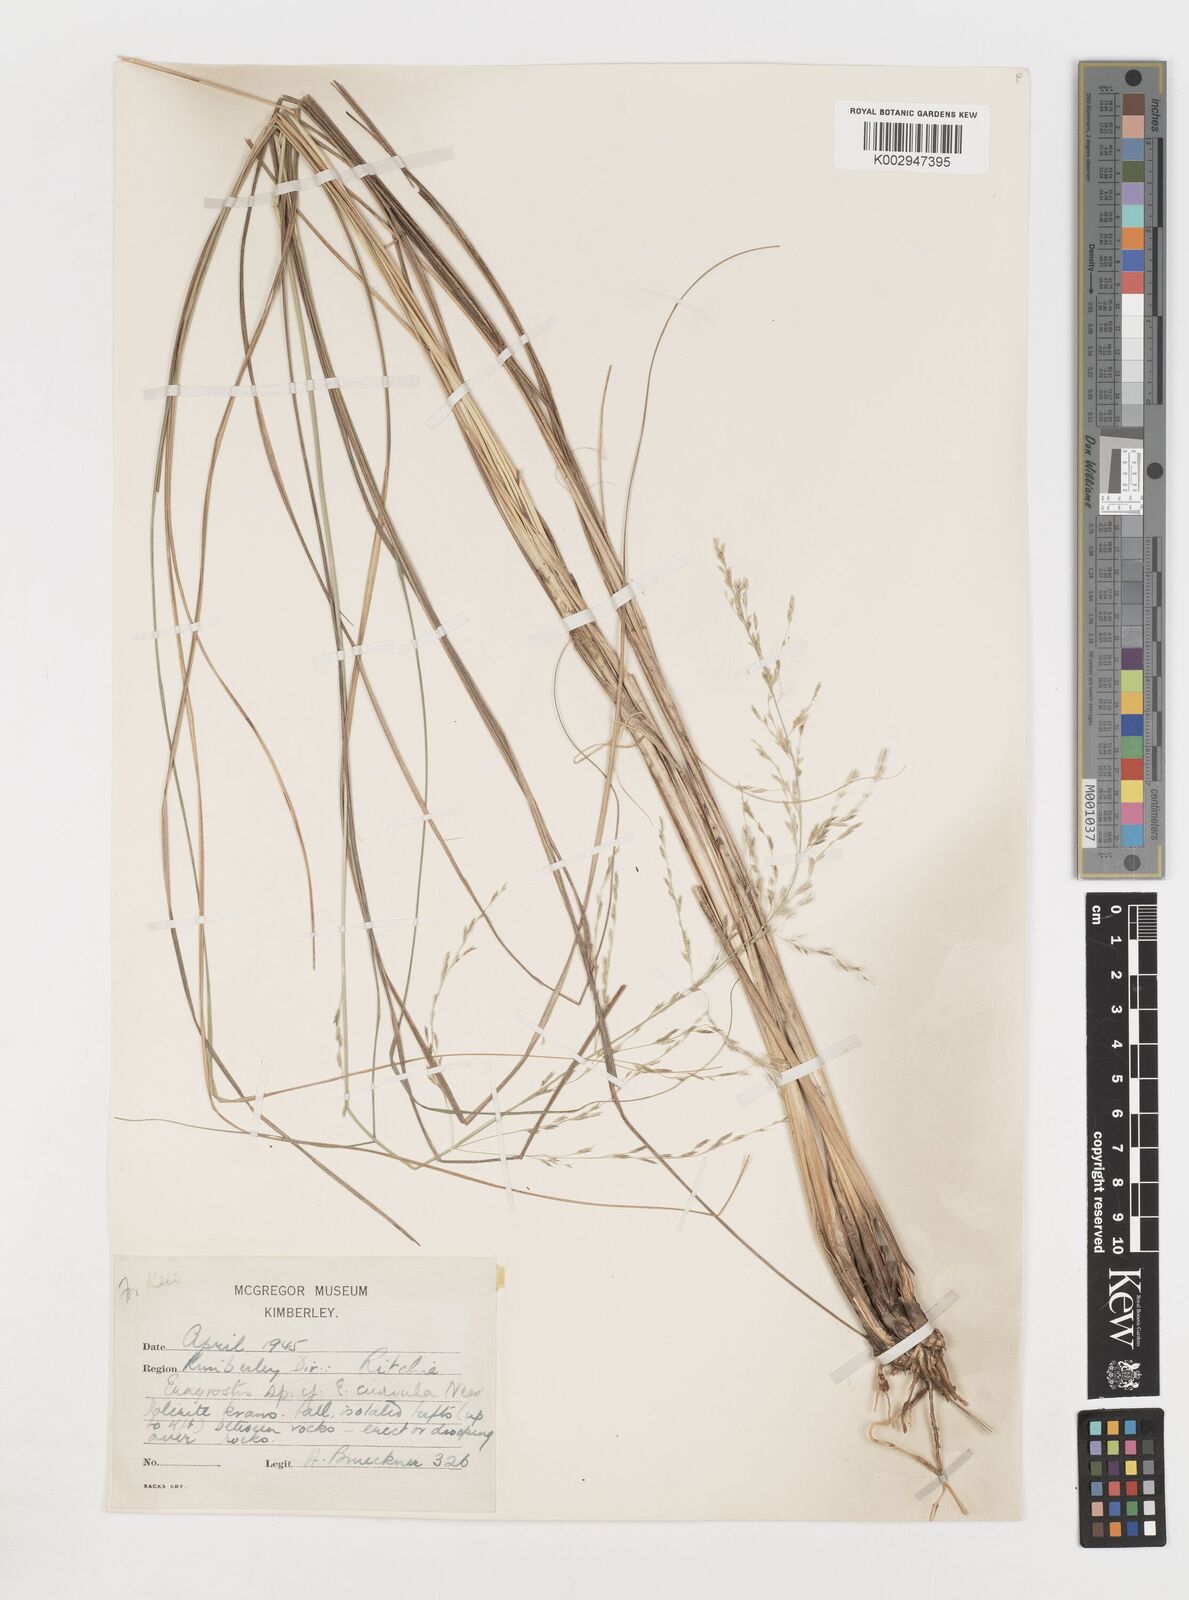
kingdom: Plantae
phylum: Tracheophyta
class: Liliopsida
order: Poales
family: Poaceae
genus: Eragrostis
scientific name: Eragrostis
